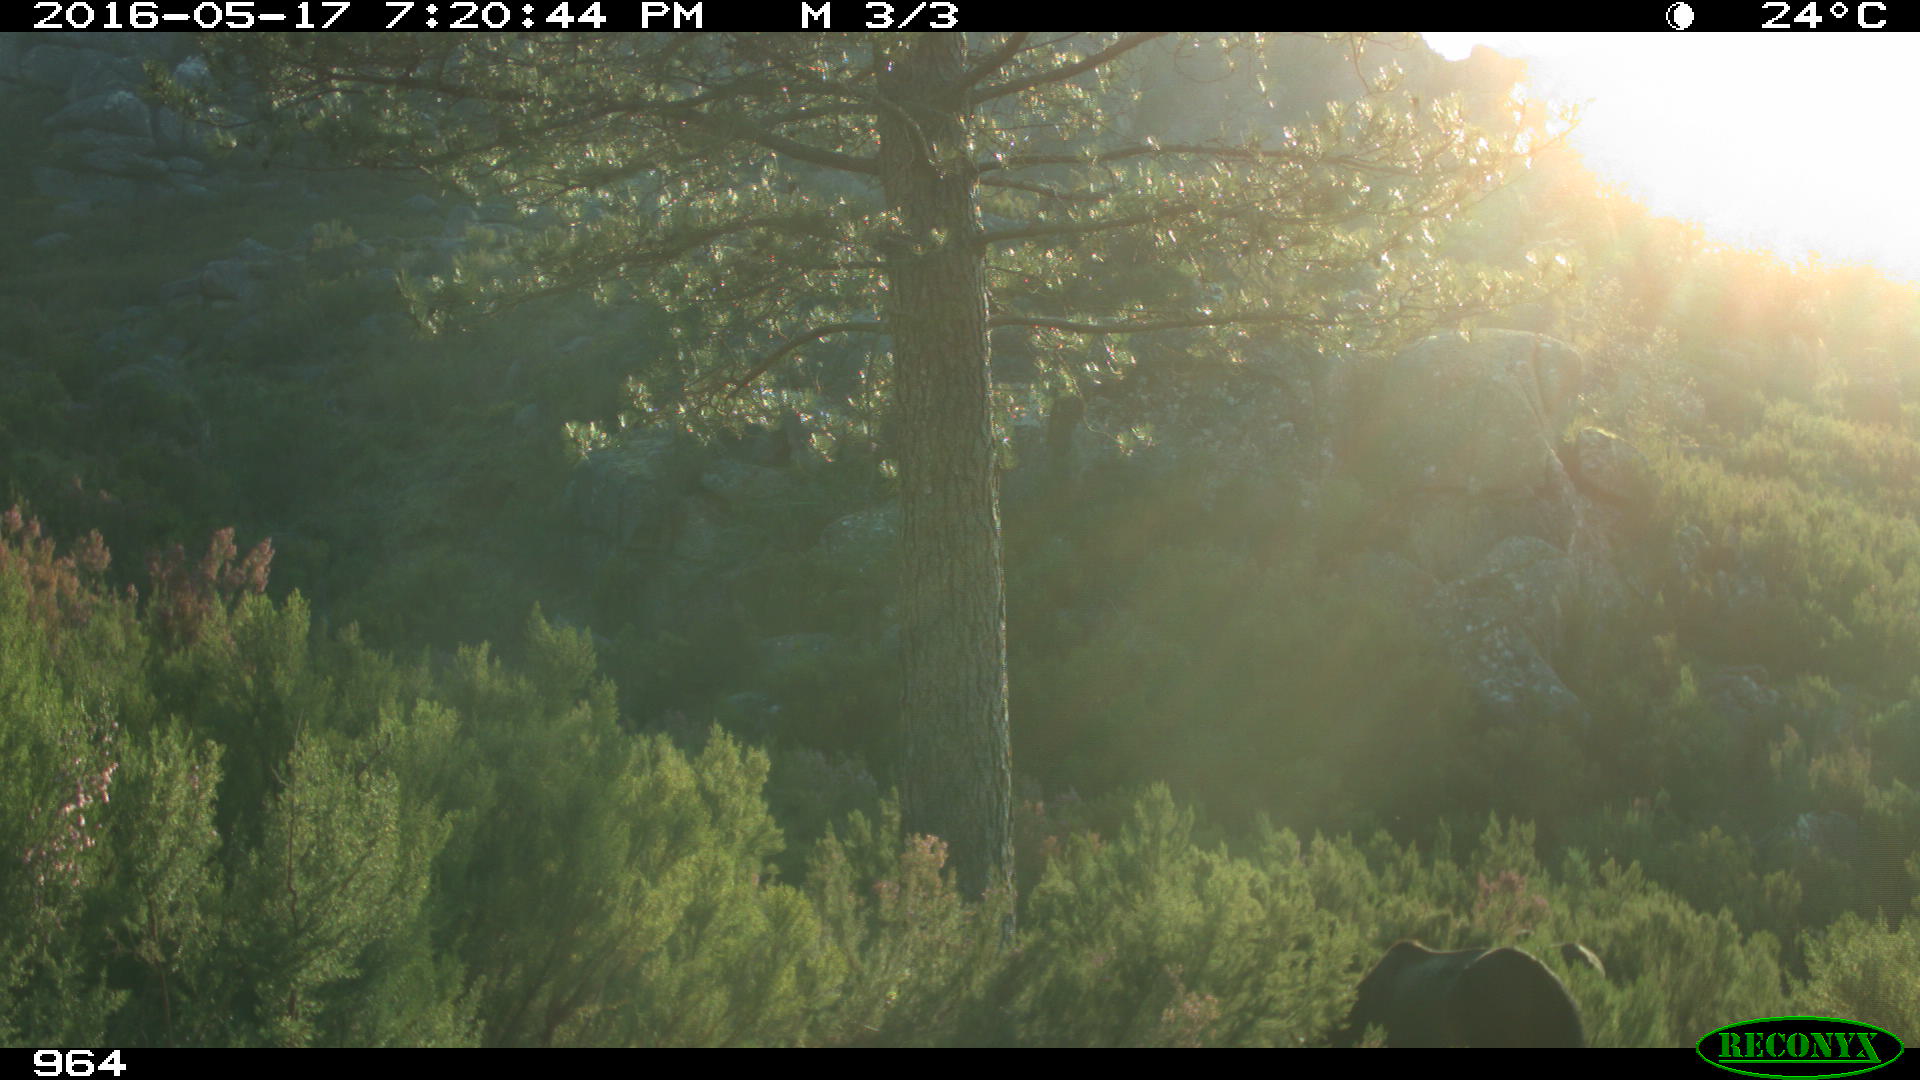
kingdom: Animalia
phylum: Chordata
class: Mammalia
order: Perissodactyla
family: Equidae
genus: Equus
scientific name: Equus caballus
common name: Horse
